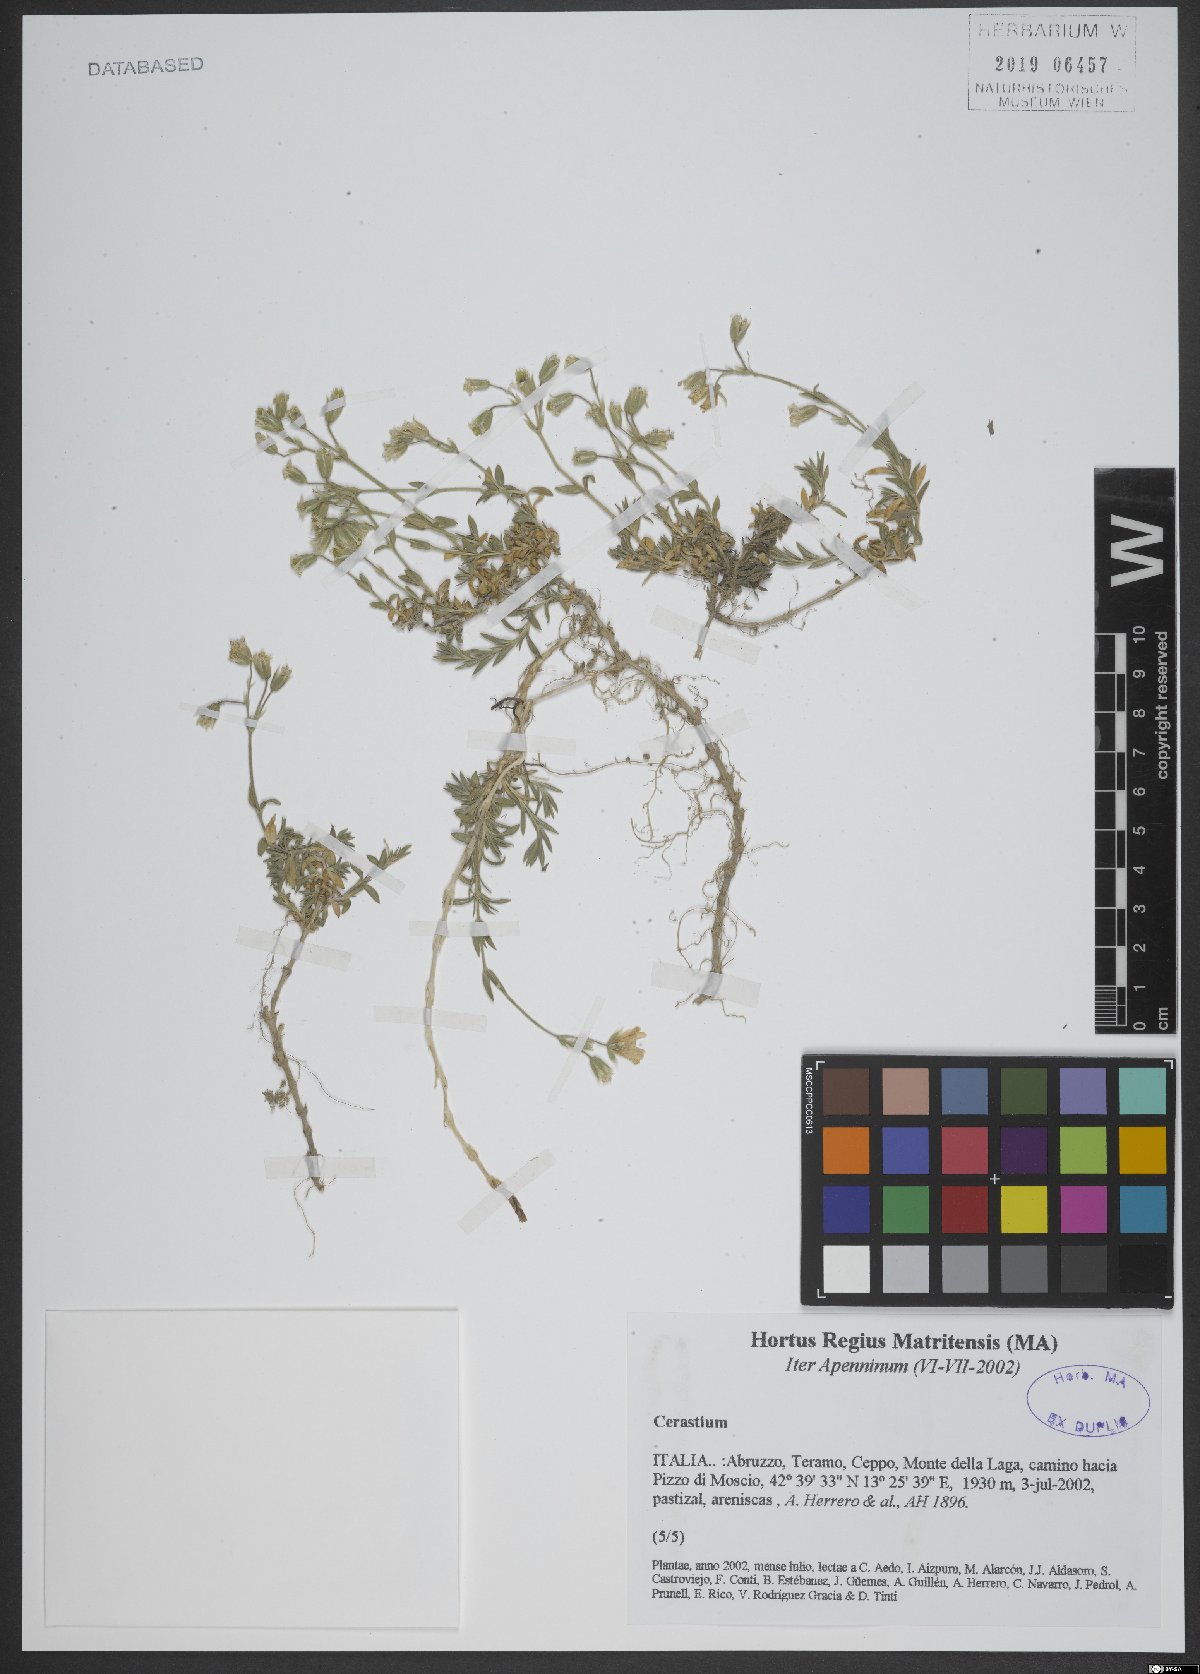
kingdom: Plantae
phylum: Tracheophyta
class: Magnoliopsida
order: Caryophyllales
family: Caryophyllaceae
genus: Cerastium
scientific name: Cerastium
